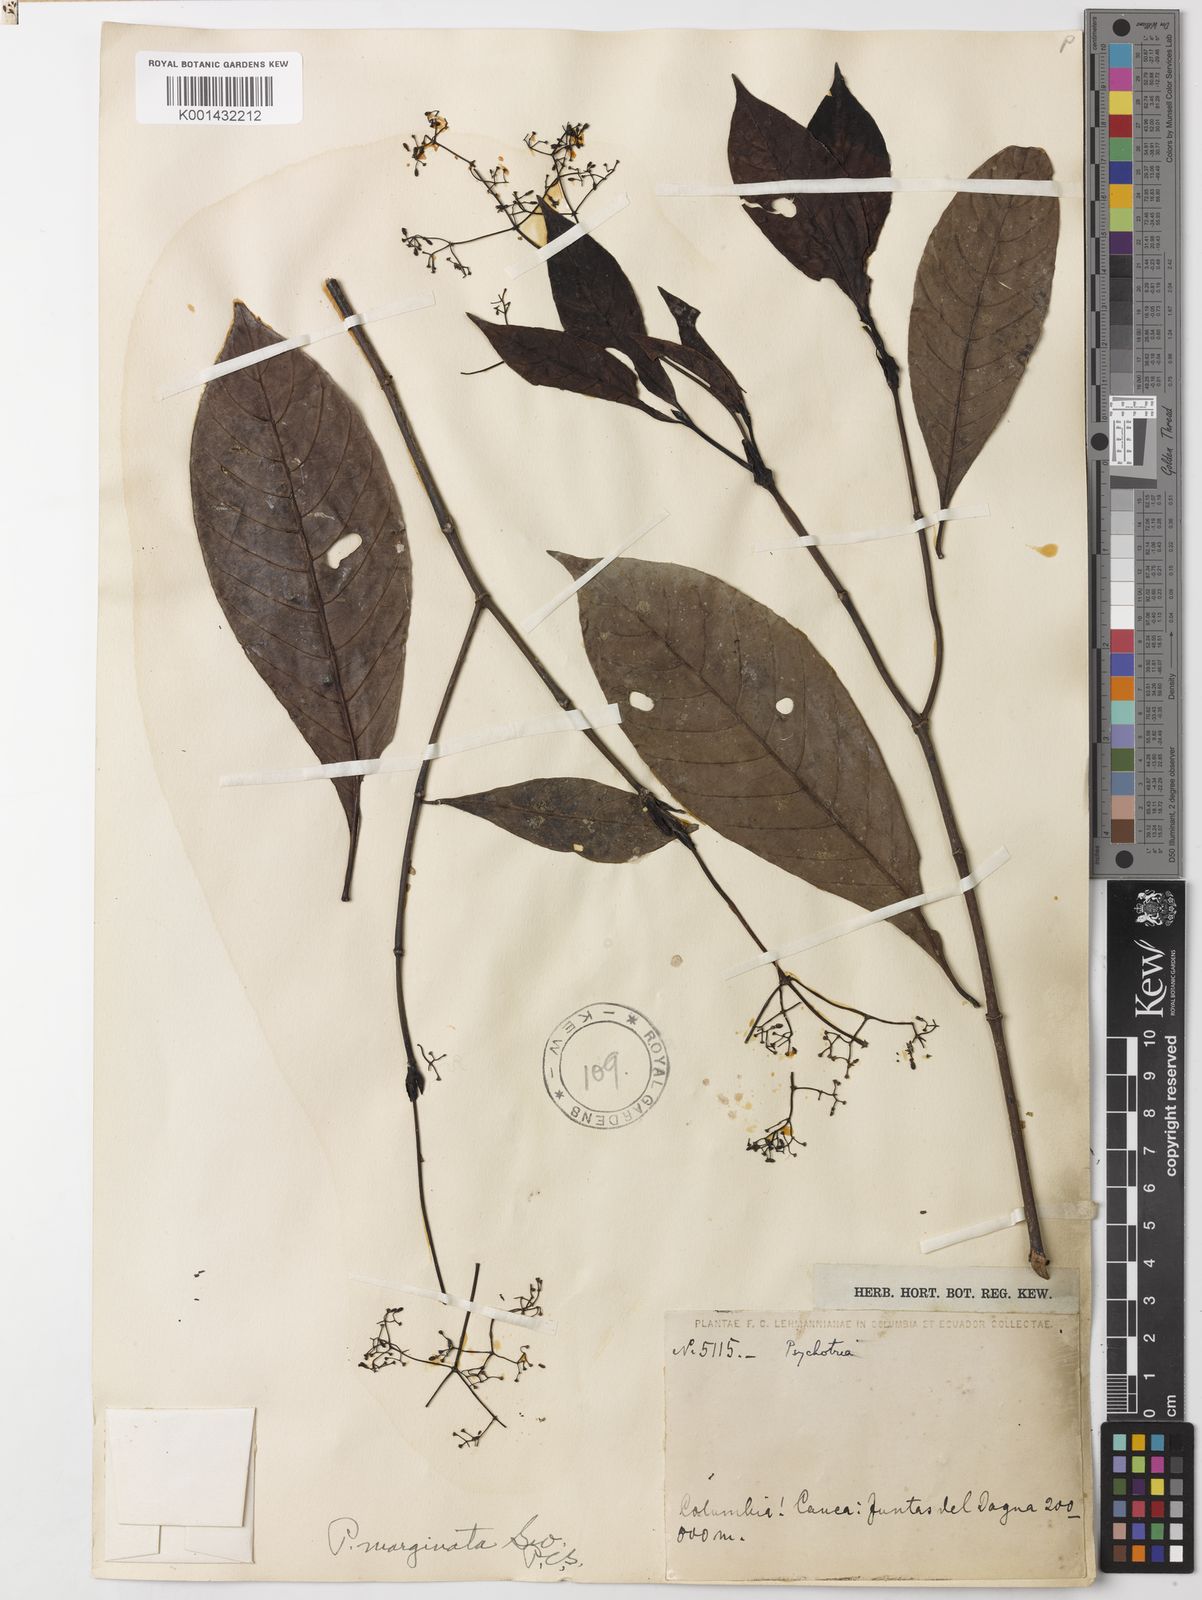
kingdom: Plantae
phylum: Tracheophyta
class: Magnoliopsida
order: Gentianales
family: Rubiaceae
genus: Psychotria
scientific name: Psychotria marginata
